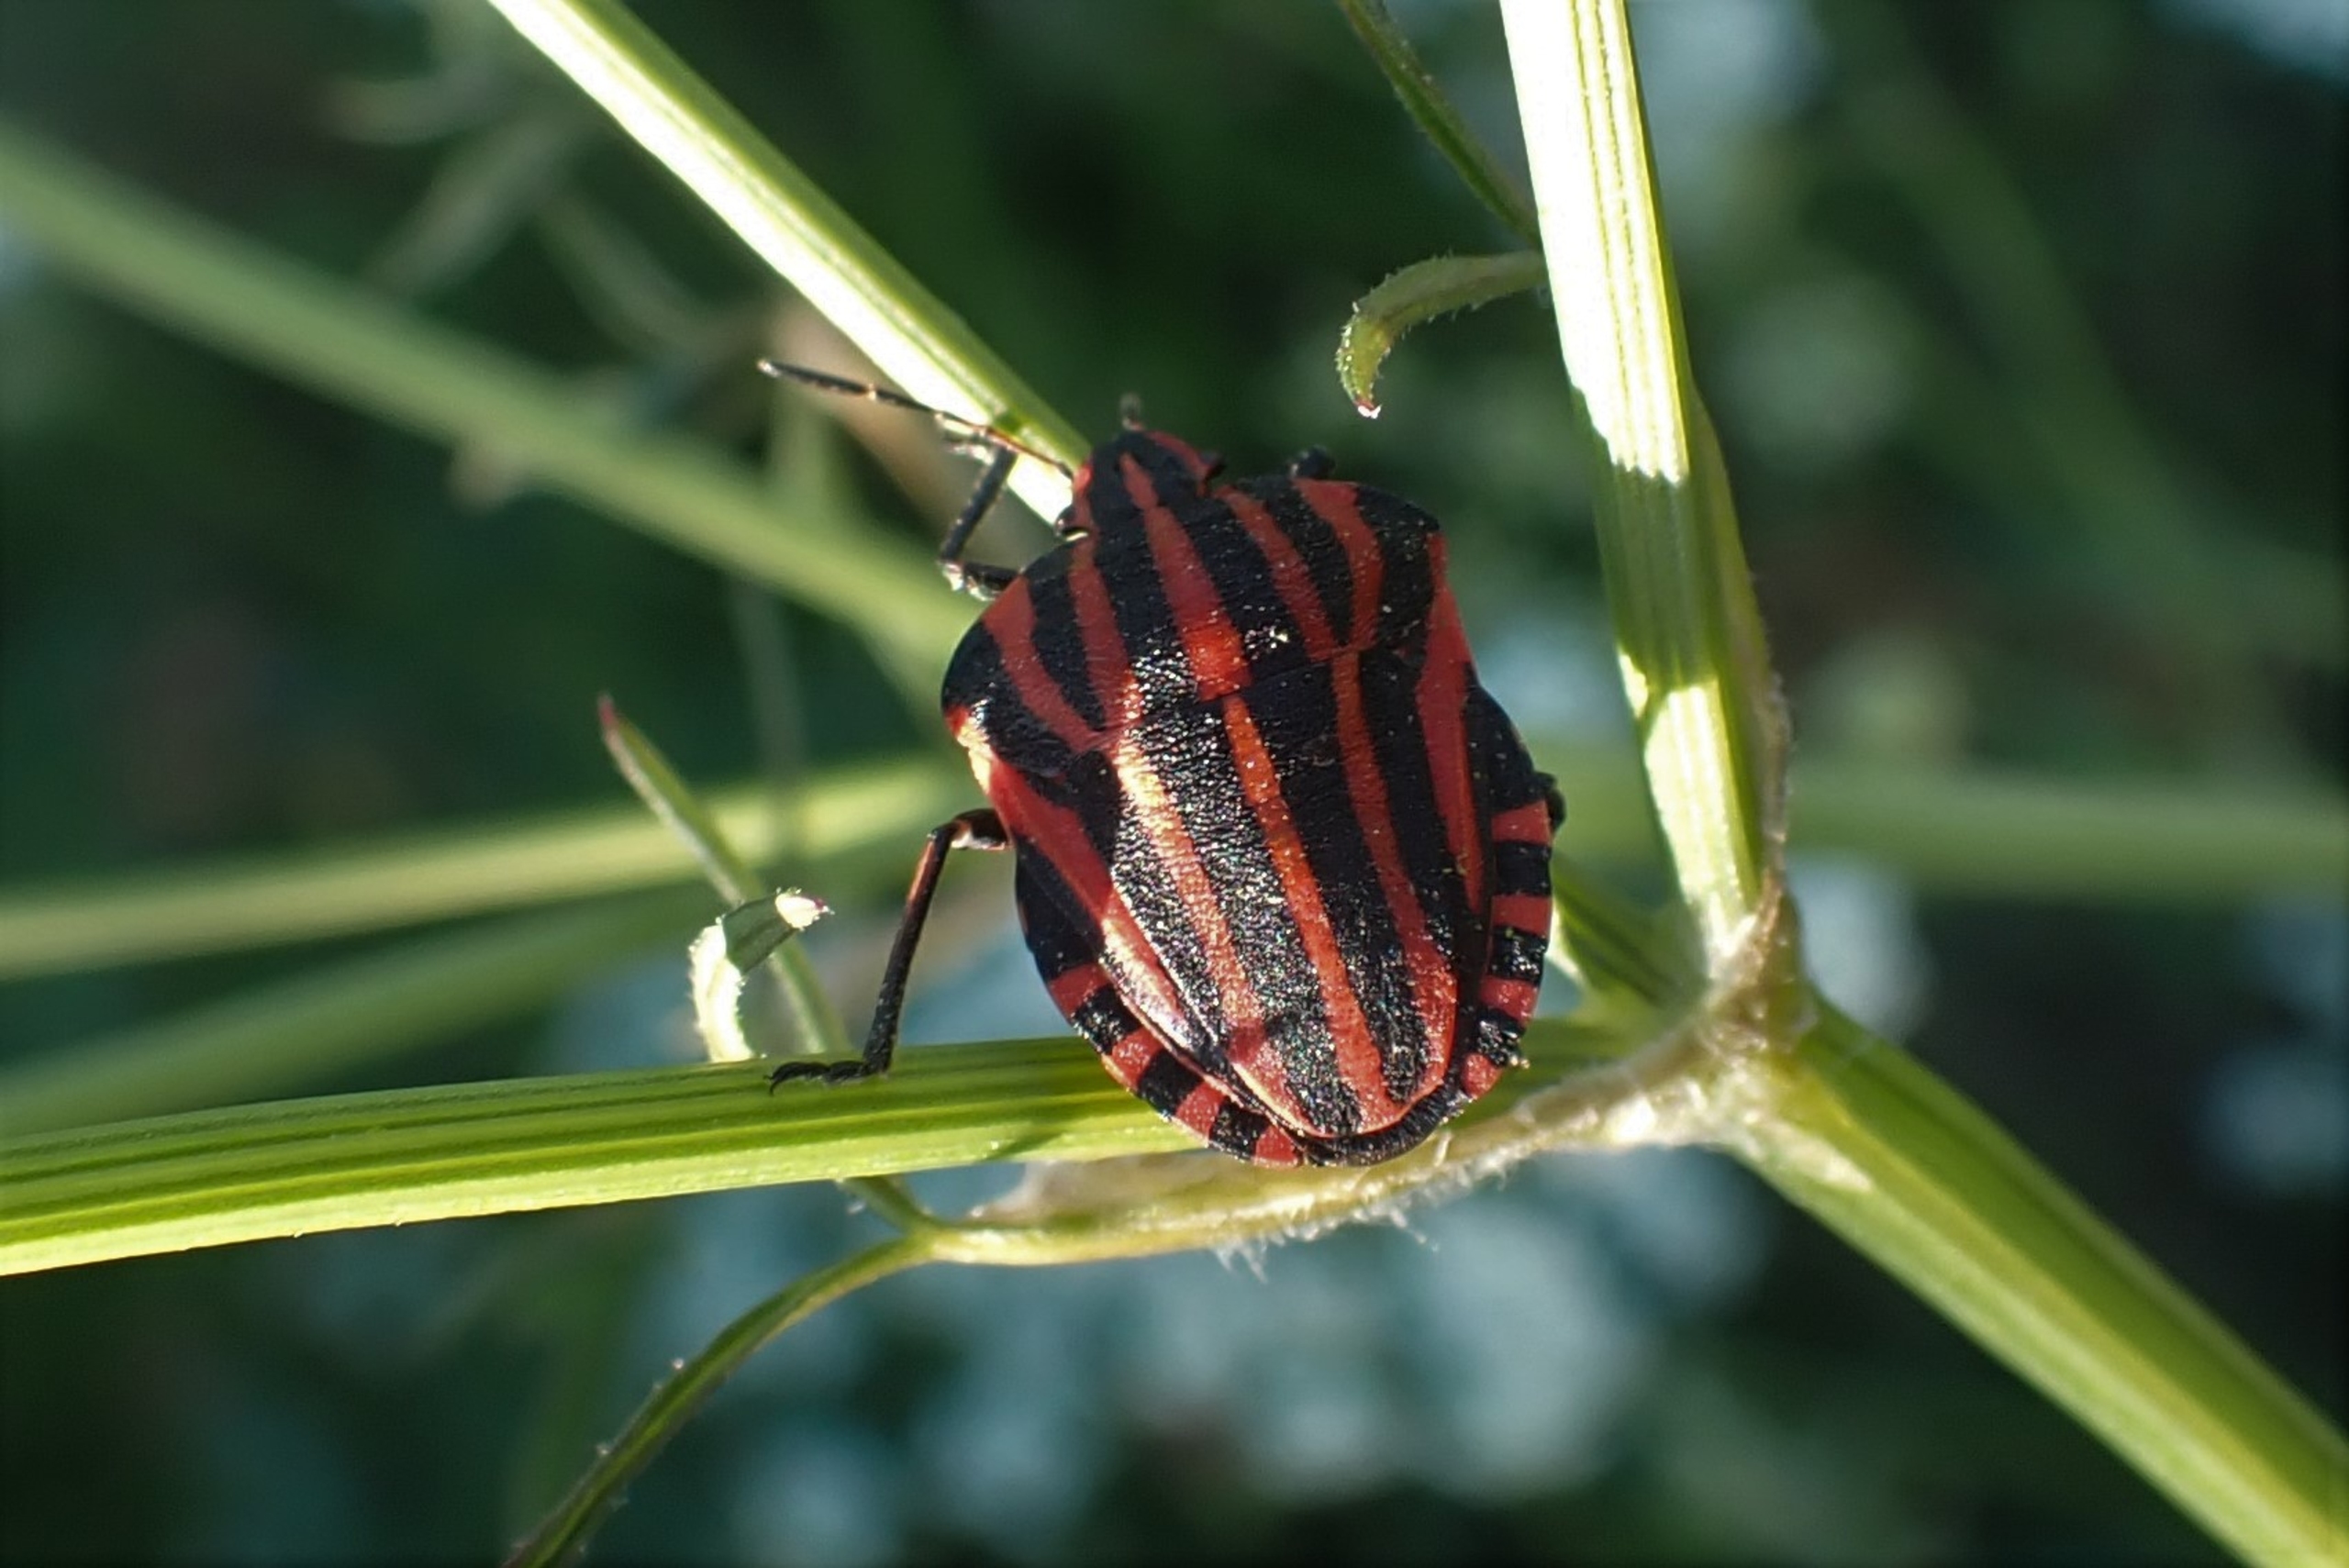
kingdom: Animalia
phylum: Arthropoda
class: Insecta
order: Hemiptera
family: Pentatomidae
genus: Graphosoma
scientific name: Graphosoma italicum
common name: Stribetæge
